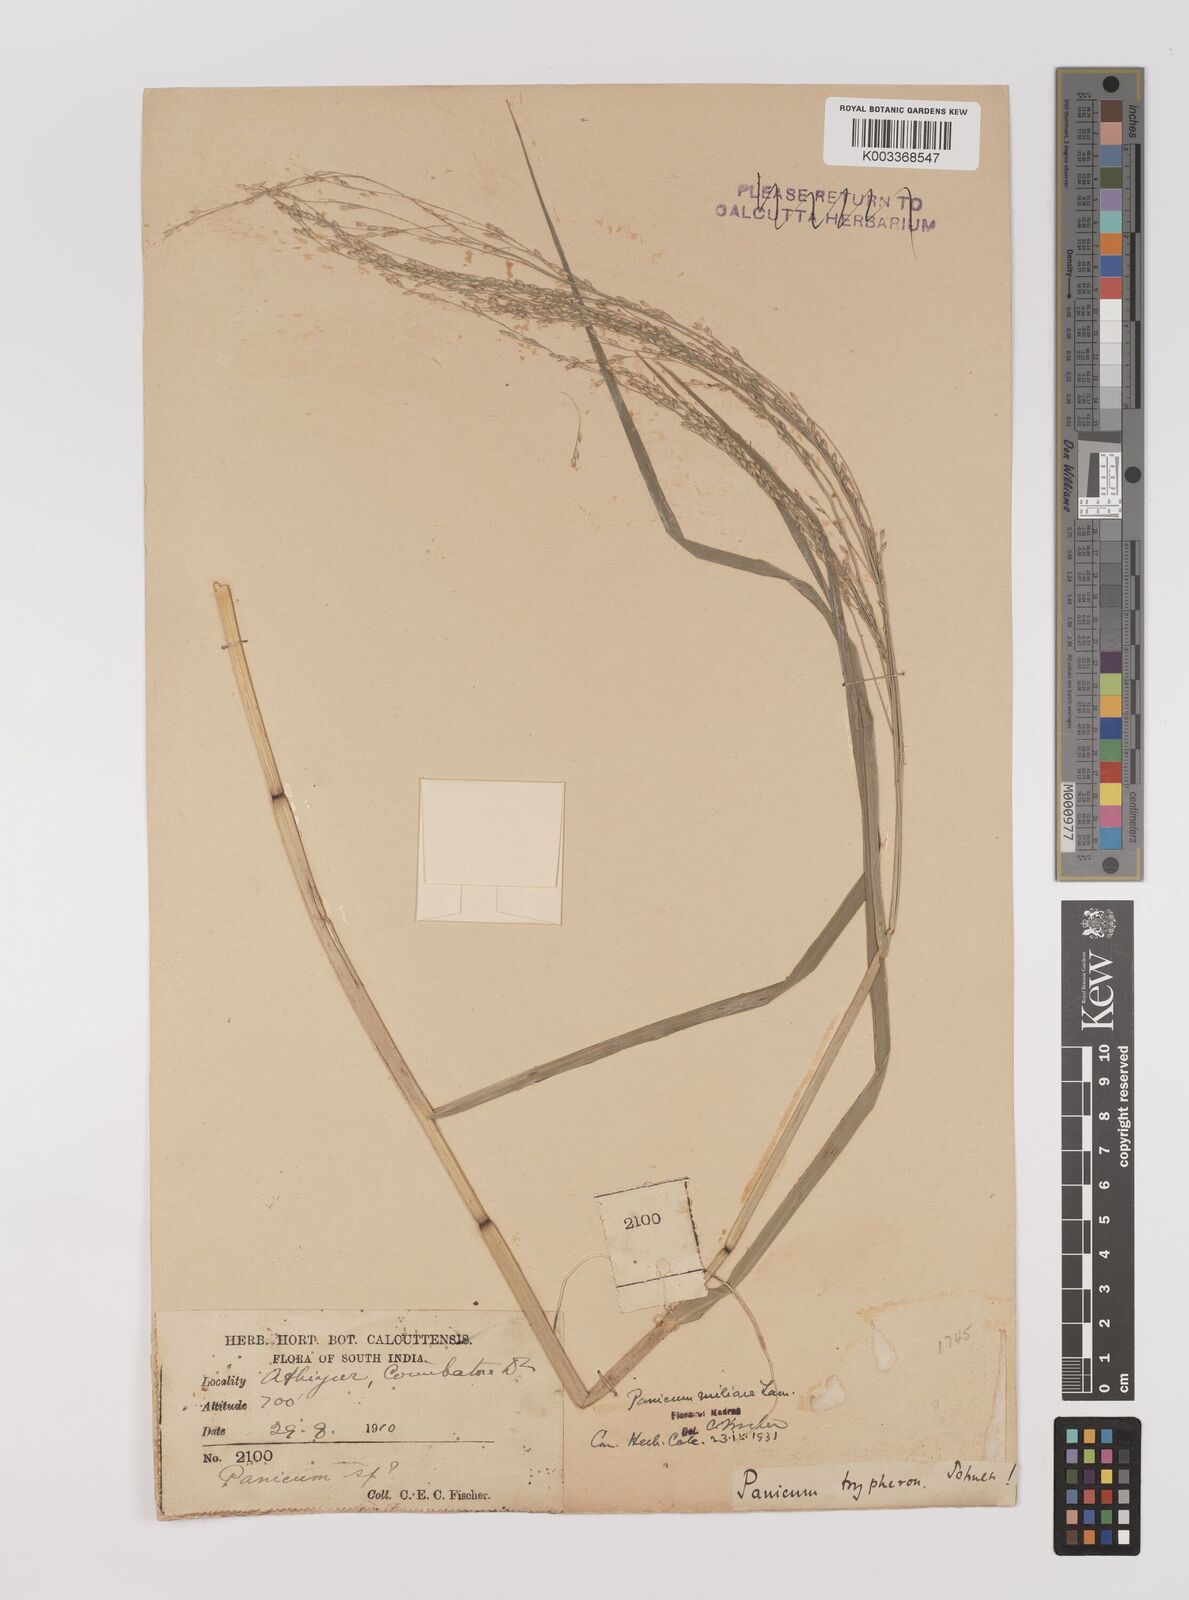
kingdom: Plantae
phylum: Tracheophyta
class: Liliopsida
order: Poales
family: Poaceae
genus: Panicum
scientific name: Panicum sumatrense
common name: Little millet
